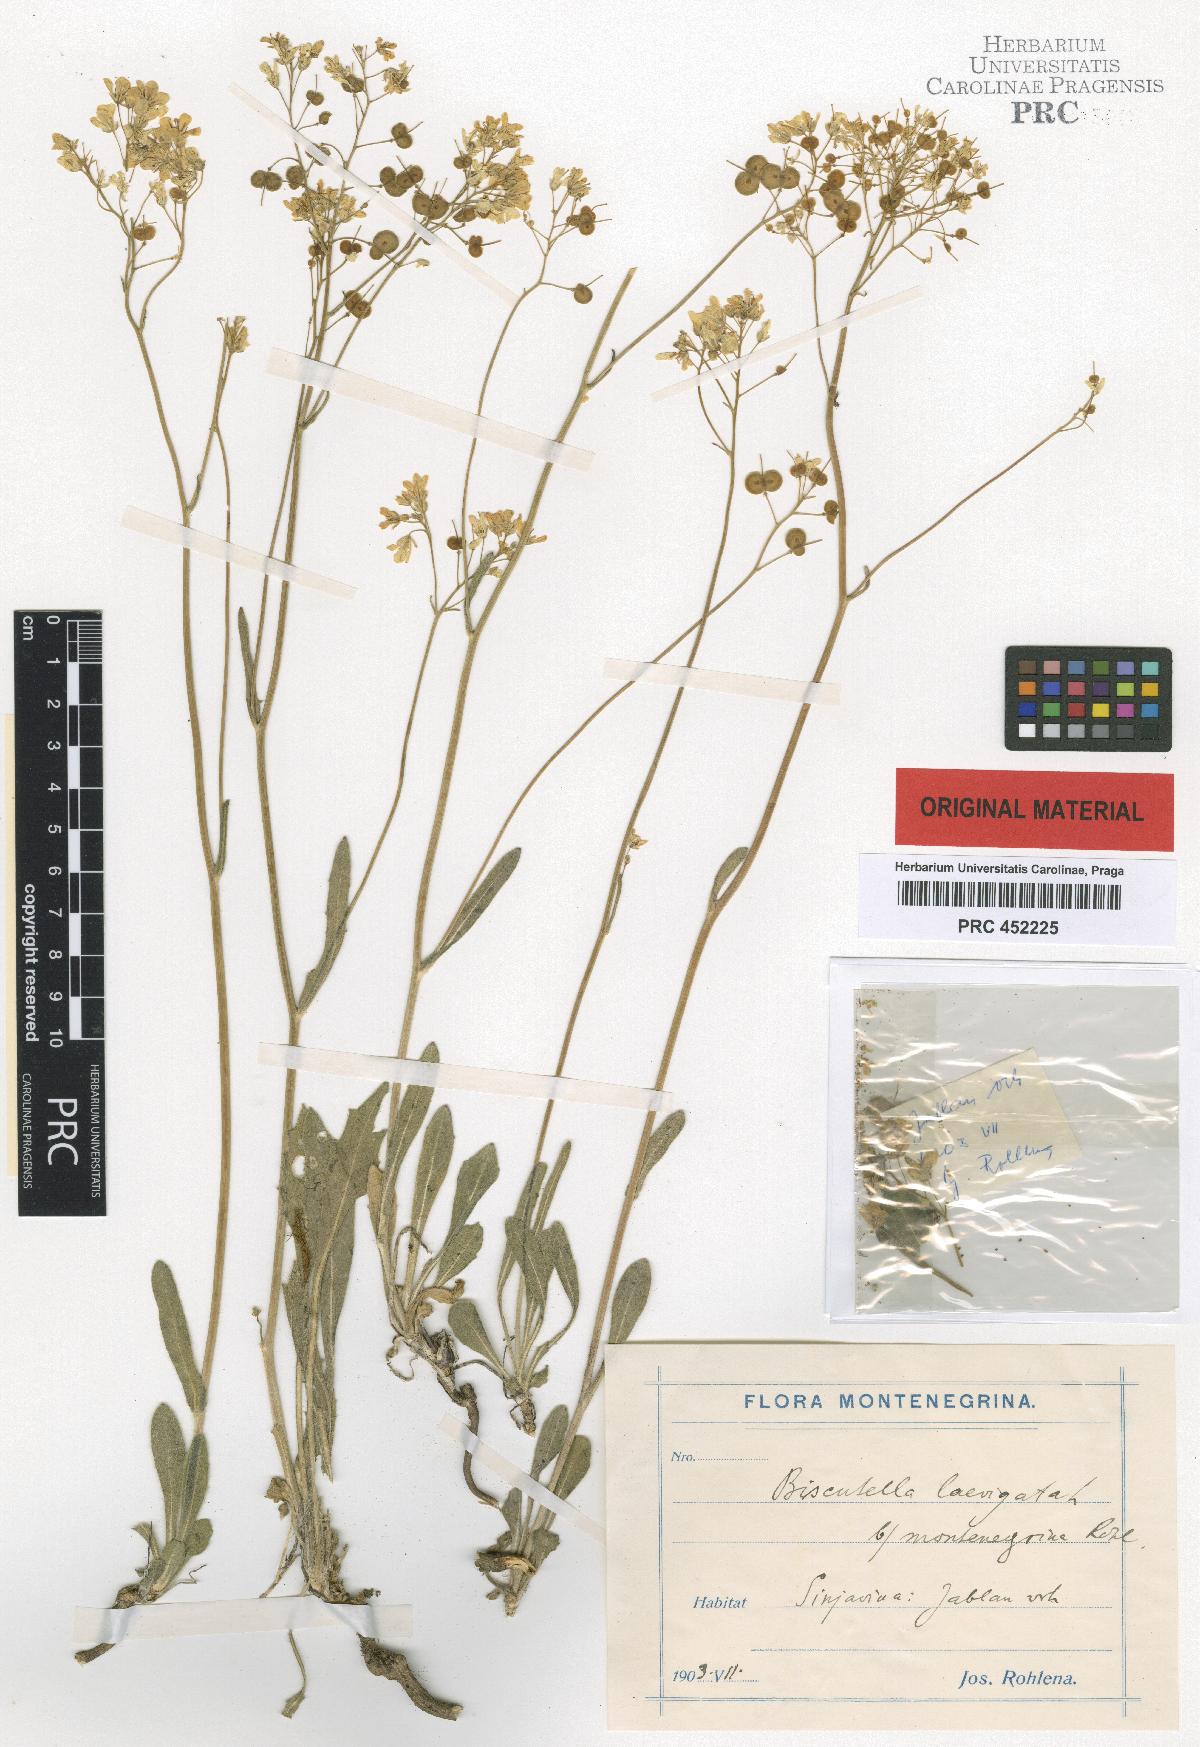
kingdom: Plantae
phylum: Tracheophyta
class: Magnoliopsida
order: Brassicales
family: Brassicaceae
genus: Biscutella
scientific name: Biscutella laevigata
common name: Buckler mustard
